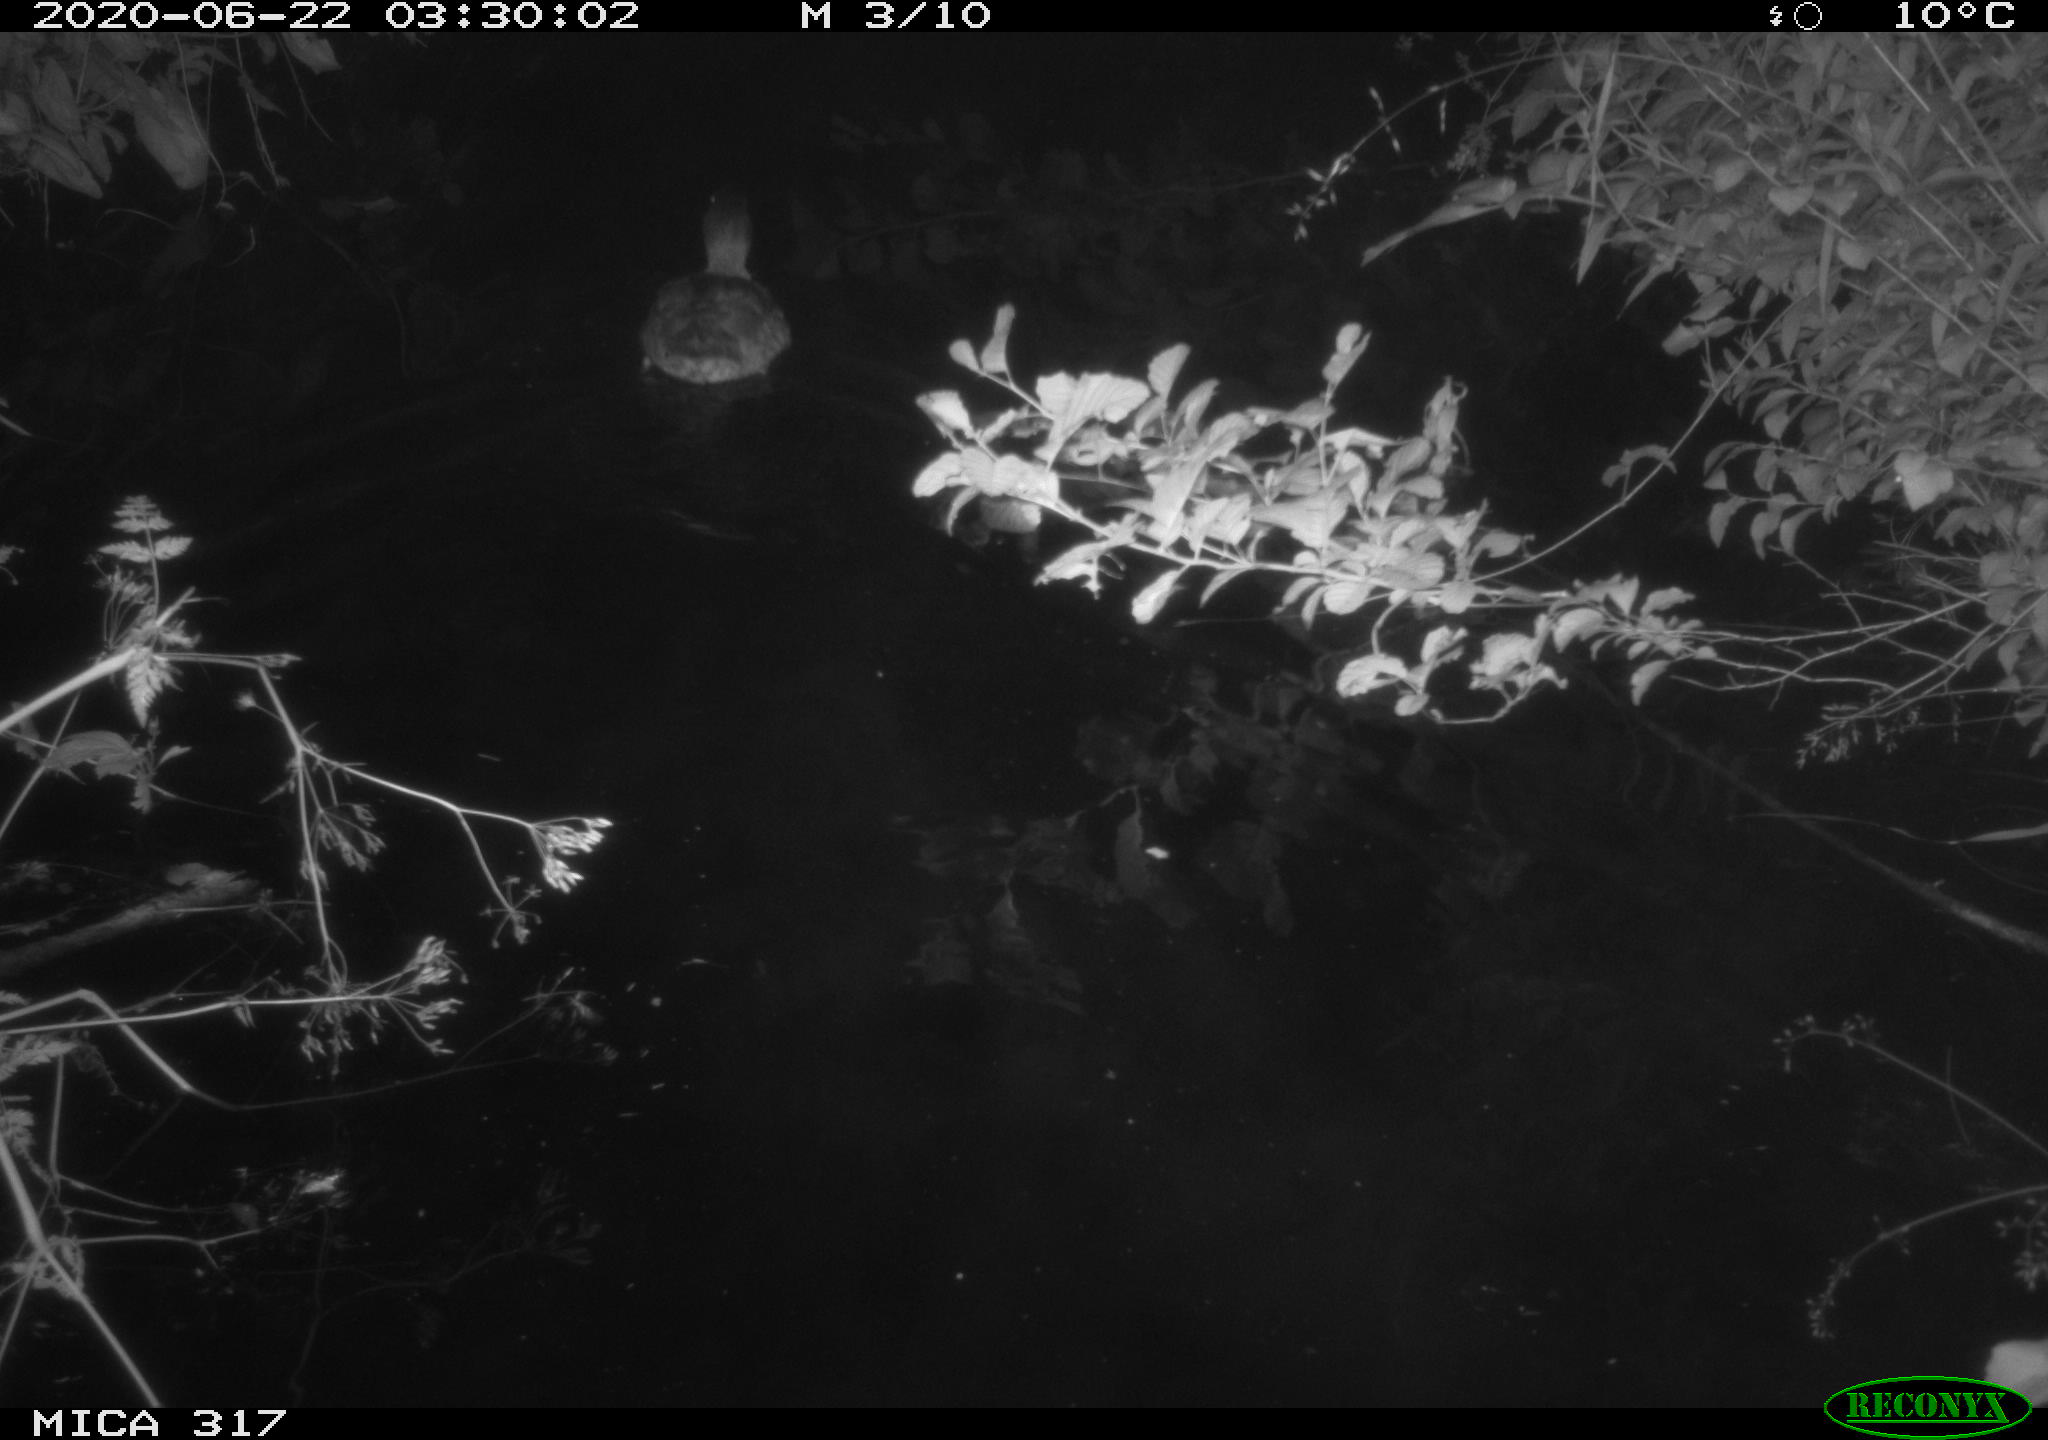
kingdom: Animalia
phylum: Chordata
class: Aves
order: Anseriformes
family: Anatidae
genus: Anas
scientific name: Anas platyrhynchos
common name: Mallard
